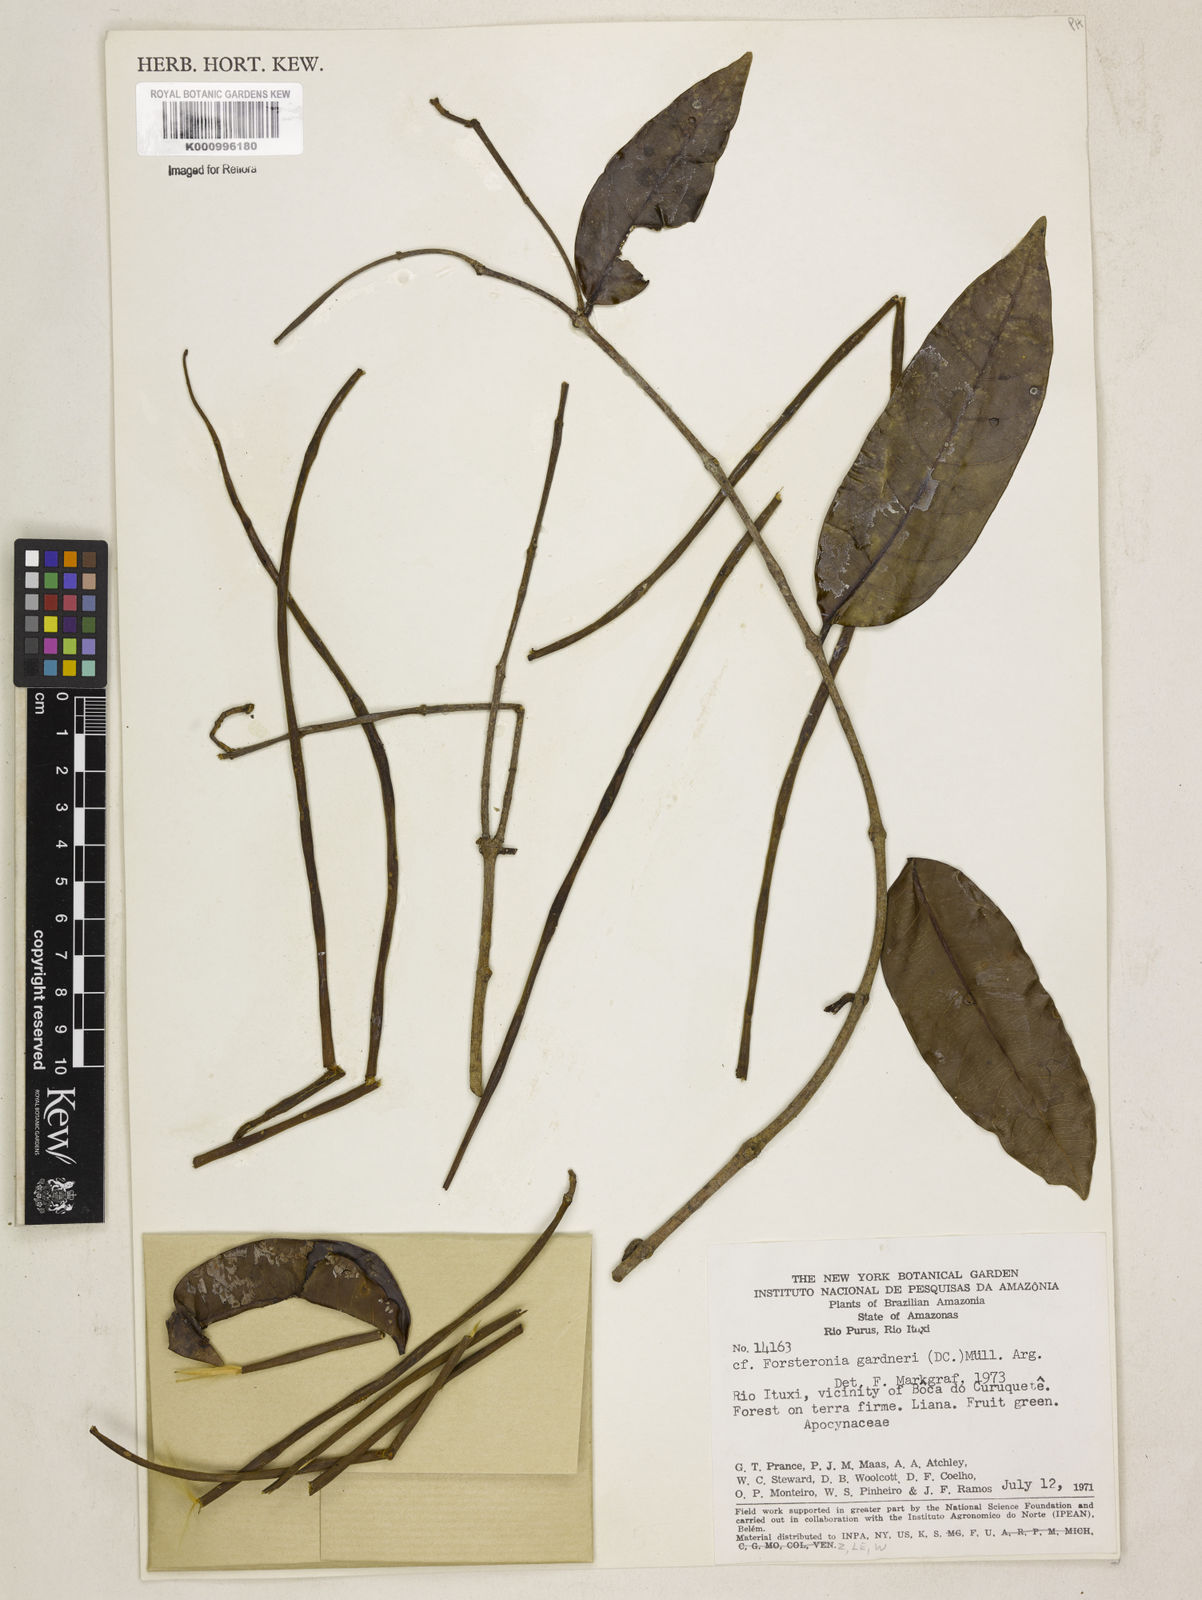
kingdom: Plantae
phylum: Tracheophyta
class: Magnoliopsida
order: Gentianales
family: Apocynaceae
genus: Forsteronia
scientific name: Forsteronia
